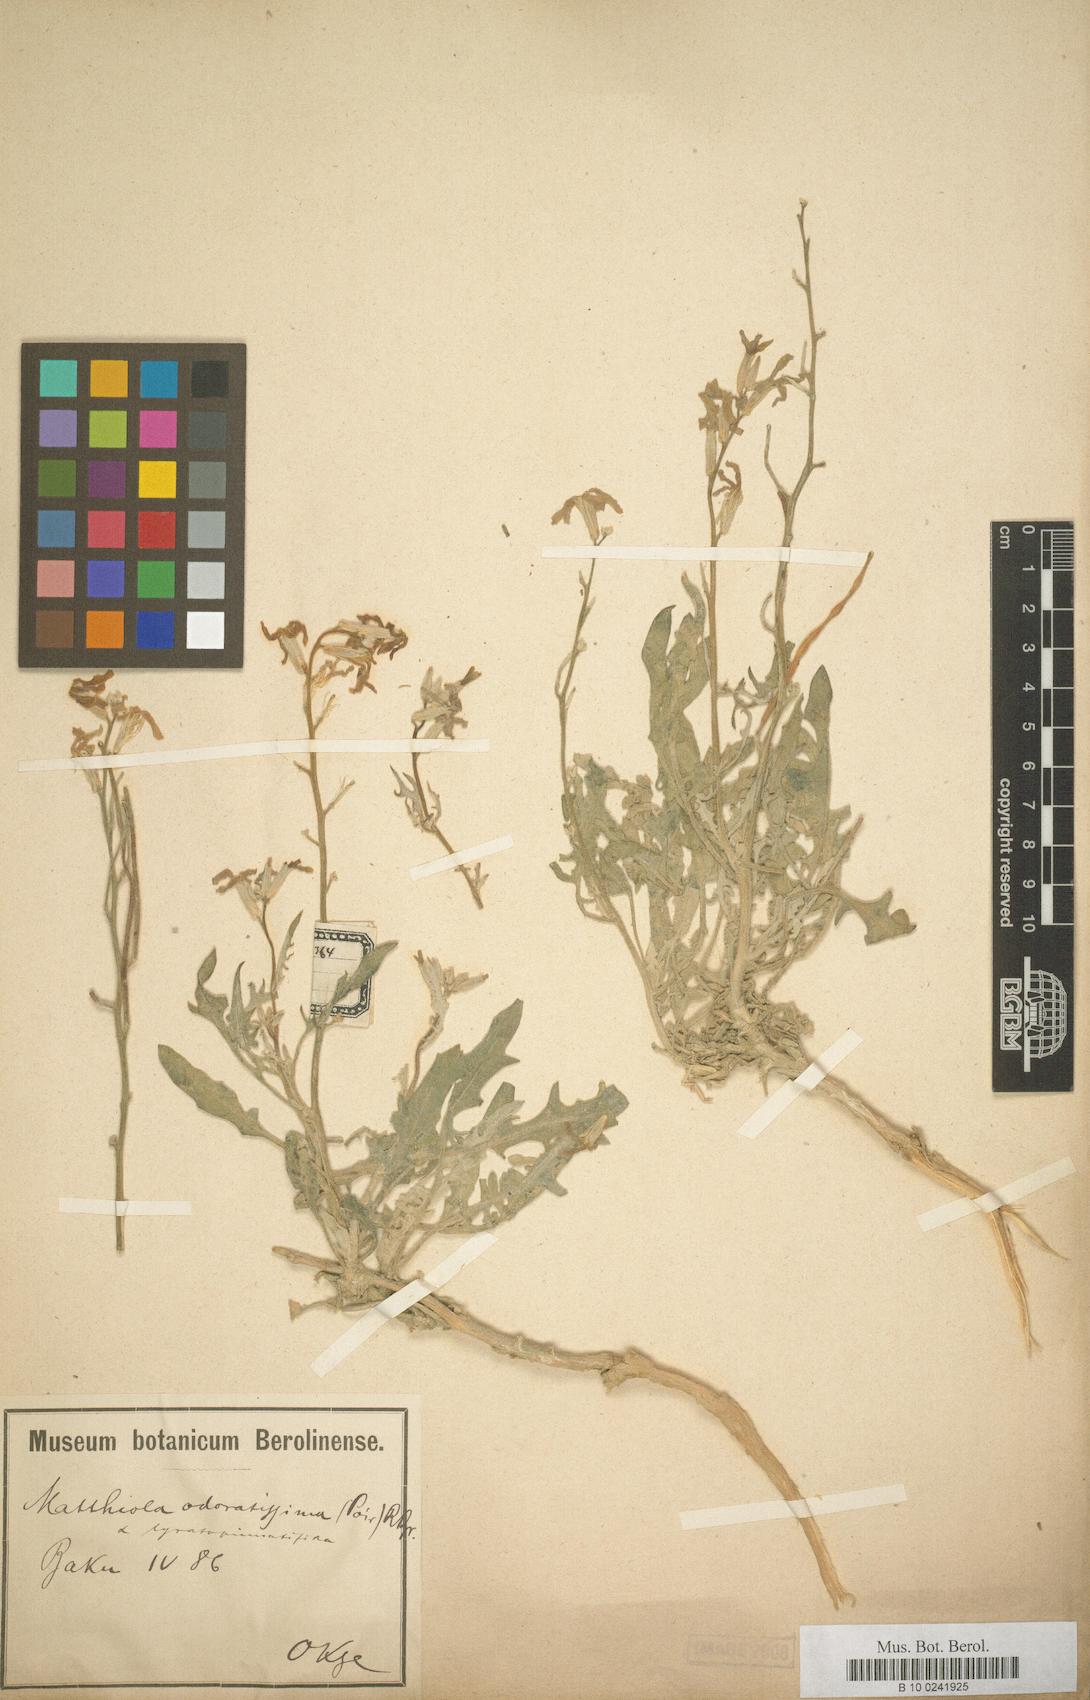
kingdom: Plantae
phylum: Tracheophyta
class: Magnoliopsida
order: Brassicales
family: Brassicaceae
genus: Matthiola
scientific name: Matthiola odoratissima
